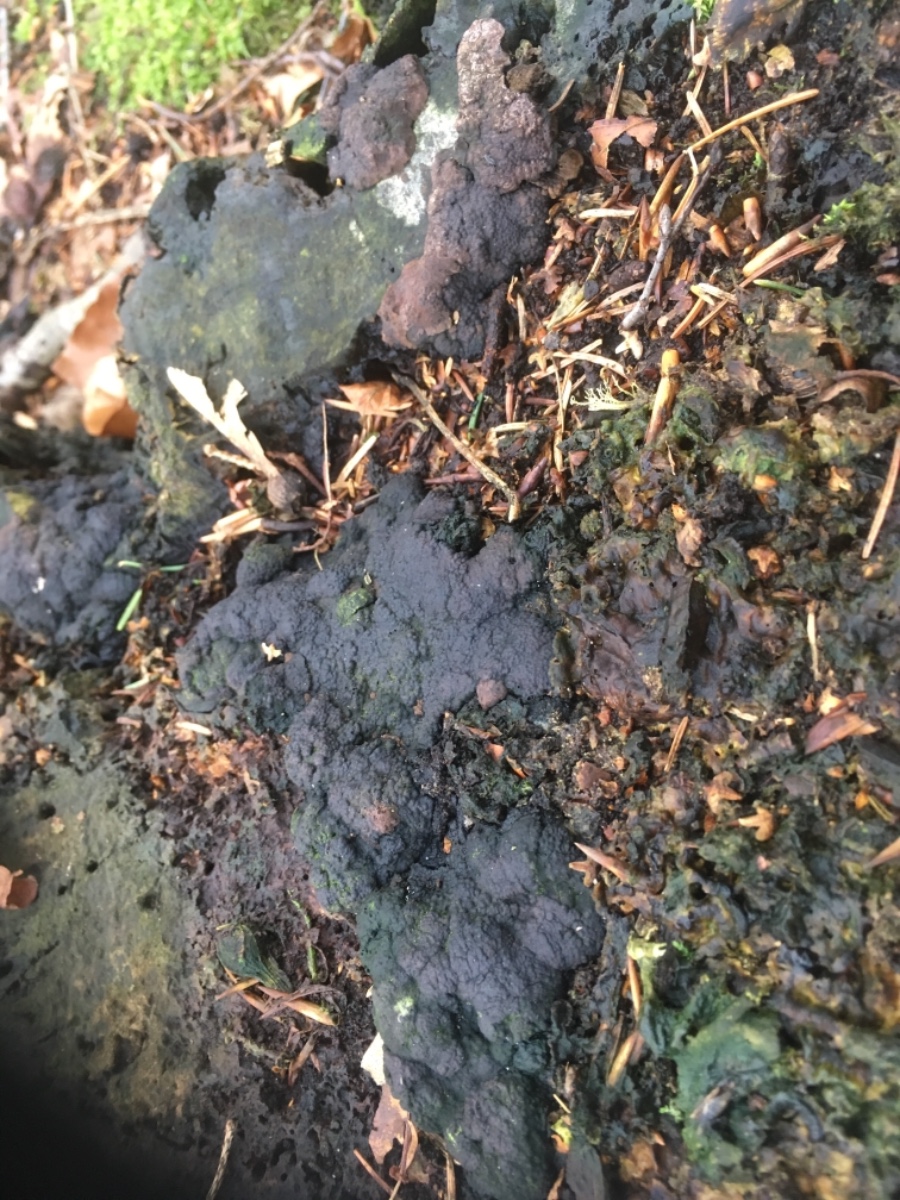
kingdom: Fungi
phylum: Ascomycota
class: Sordariomycetes
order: Xylariales
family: Xylariaceae
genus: Kretzschmaria
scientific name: Kretzschmaria deusta
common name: stor kulsvamp
